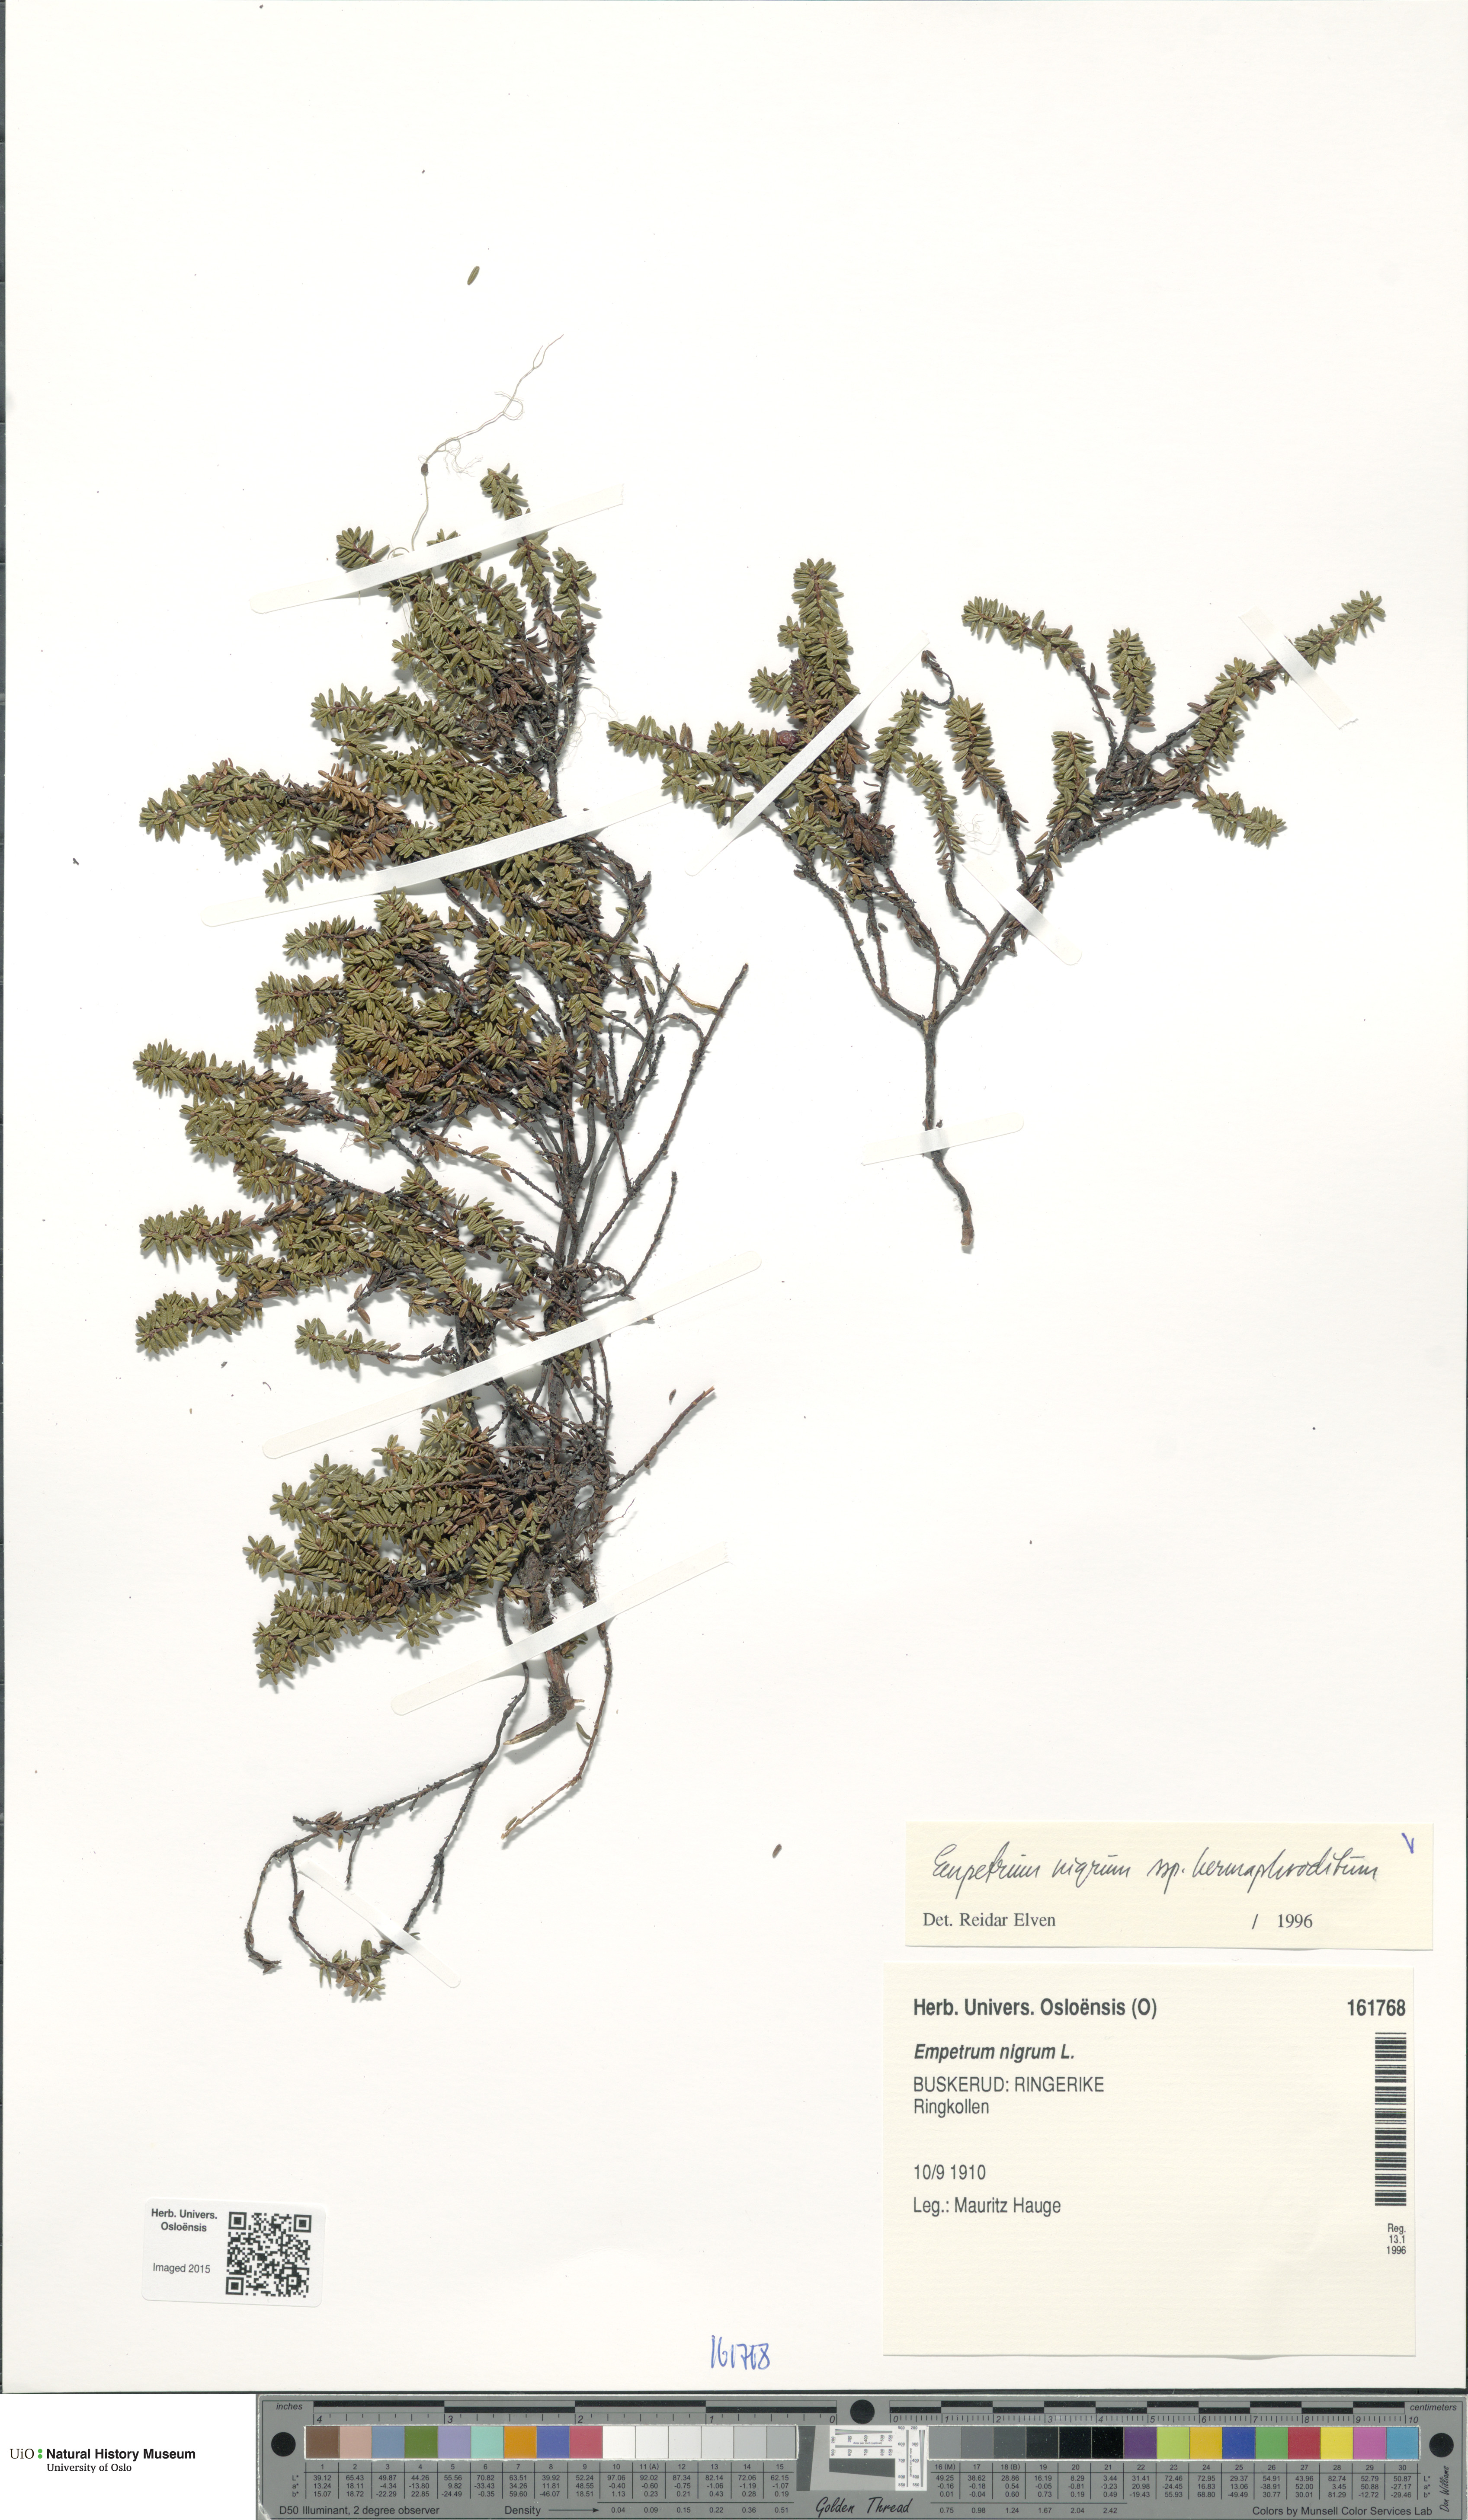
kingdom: Plantae
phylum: Tracheophyta
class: Magnoliopsida
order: Ericales
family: Ericaceae
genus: Empetrum
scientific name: Empetrum hermaphroditum
